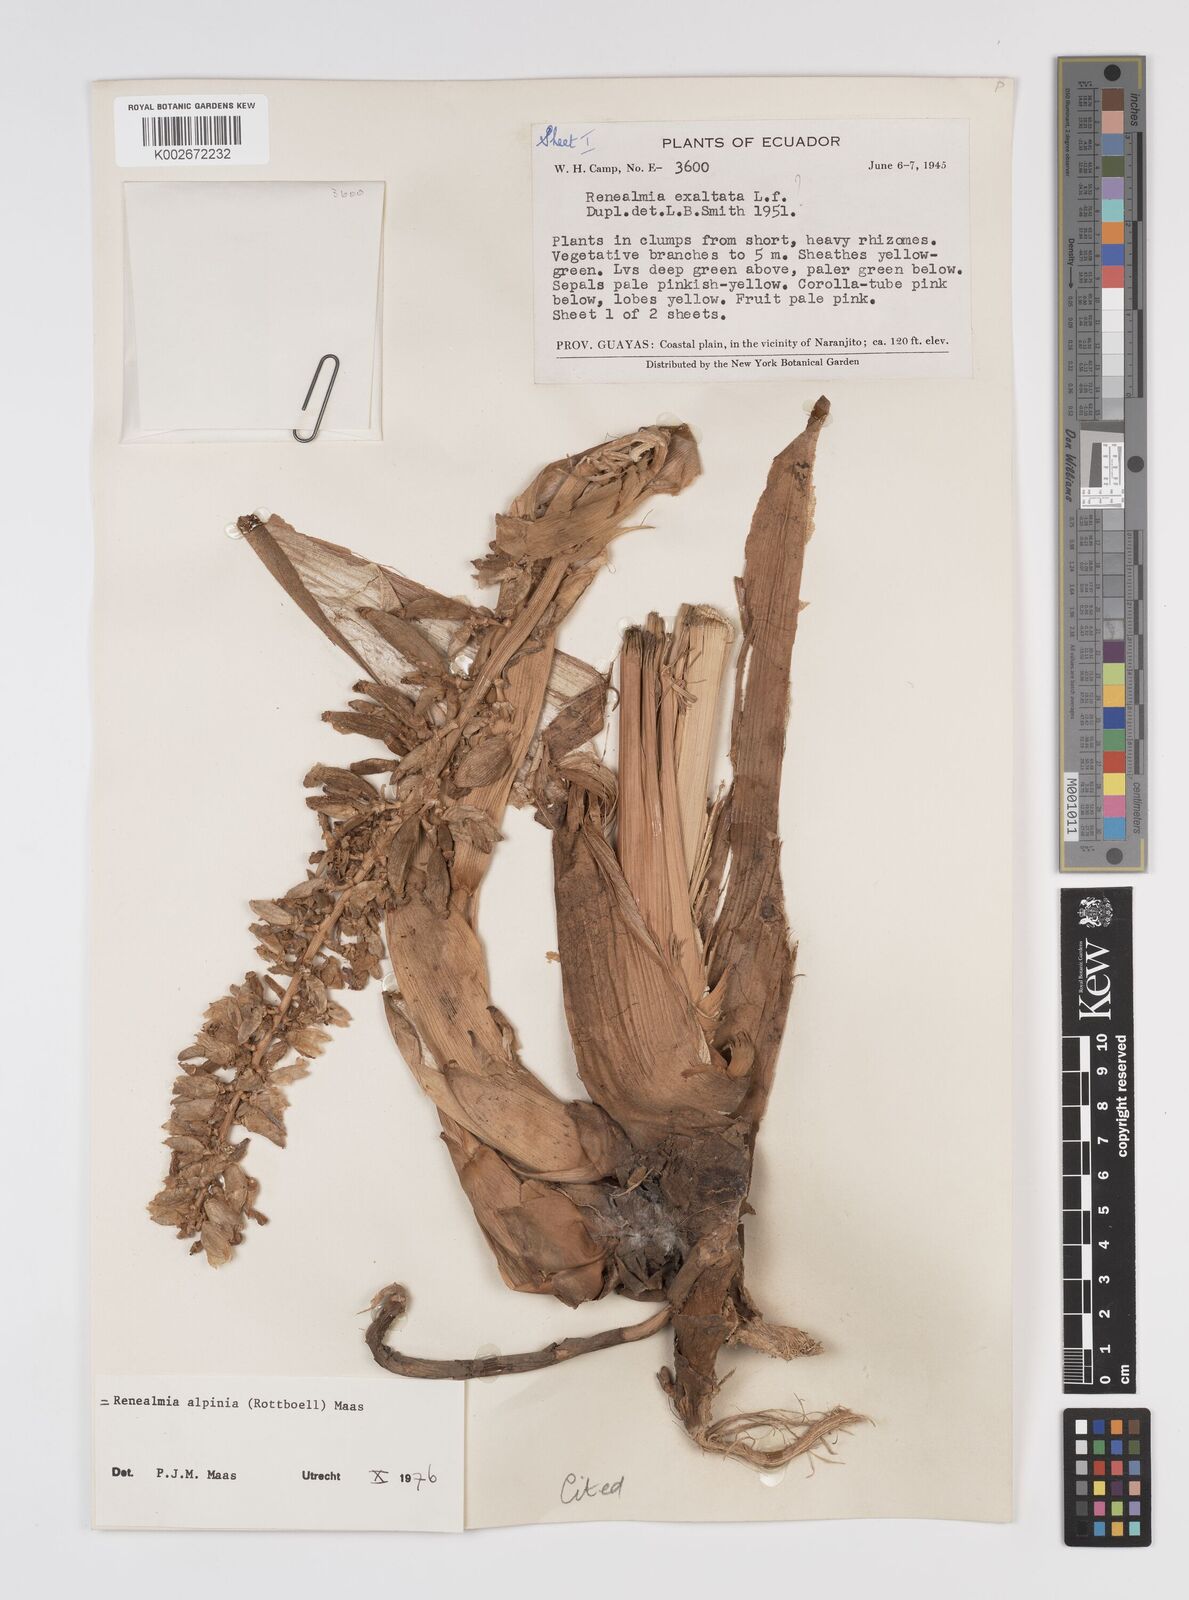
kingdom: Plantae
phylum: Tracheophyta
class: Liliopsida
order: Zingiberales
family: Zingiberaceae
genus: Renealmia
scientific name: Renealmia alpinia
